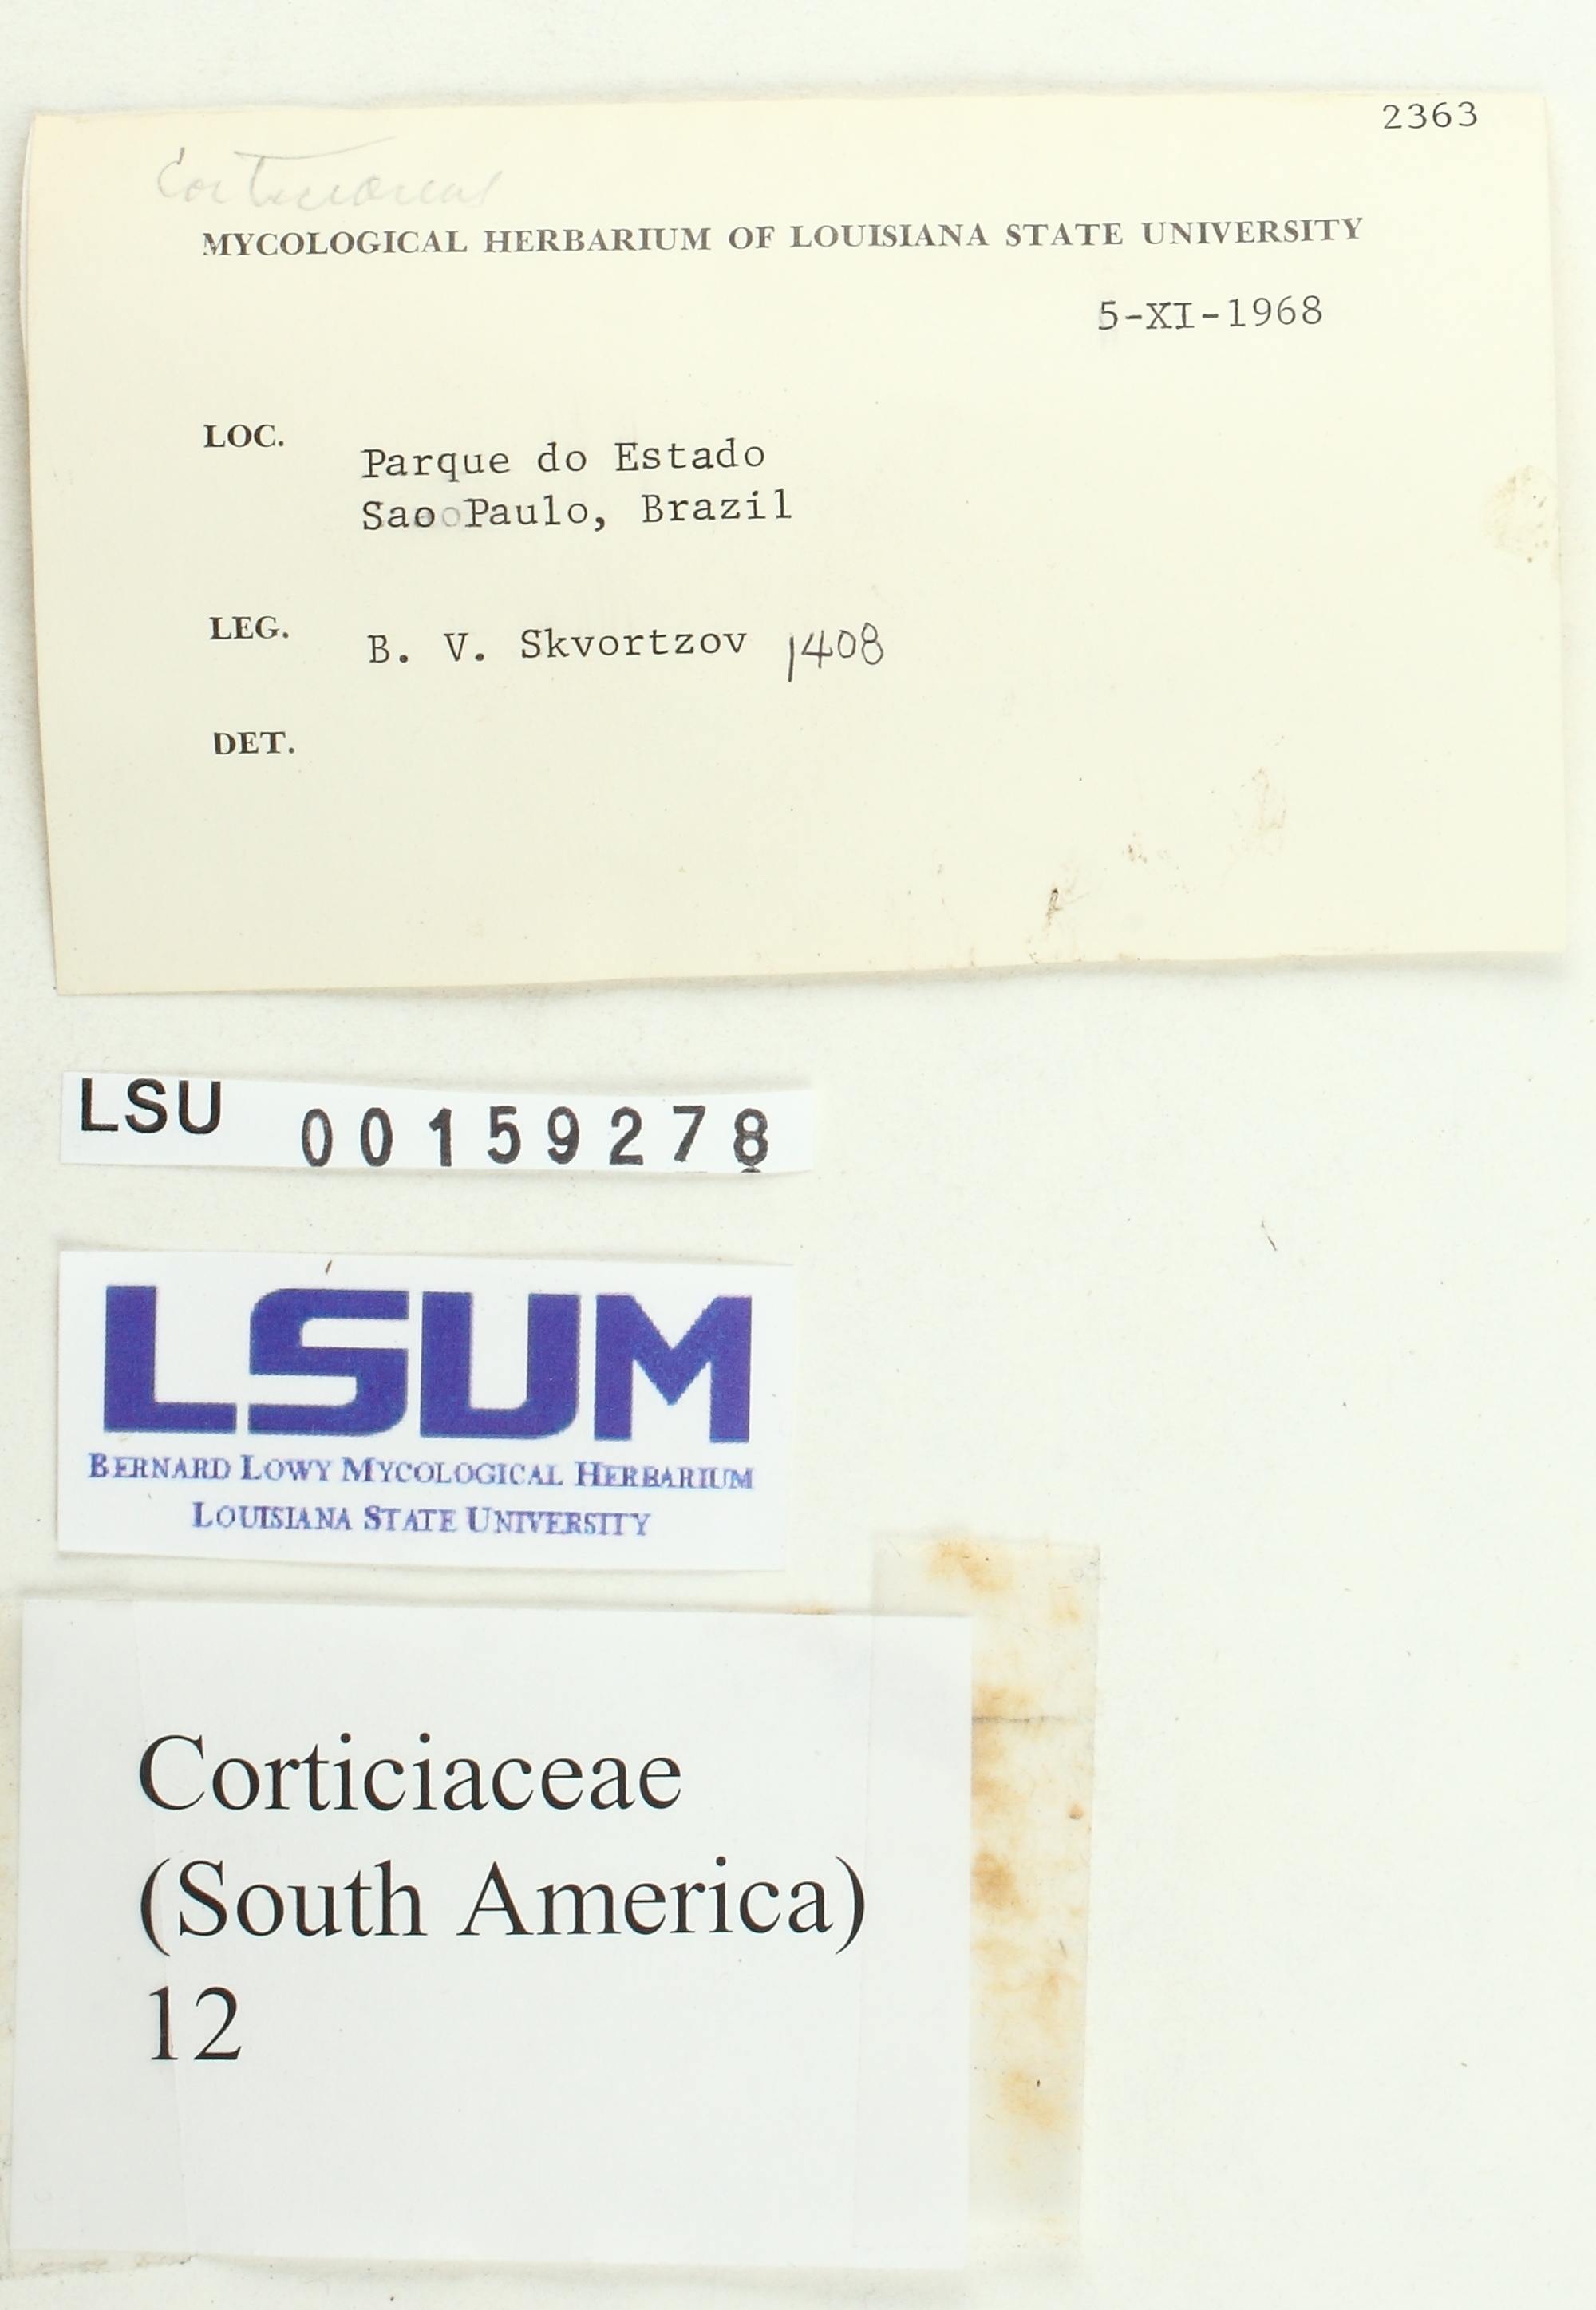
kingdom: Fungi
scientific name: Fungi
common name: Fungi
